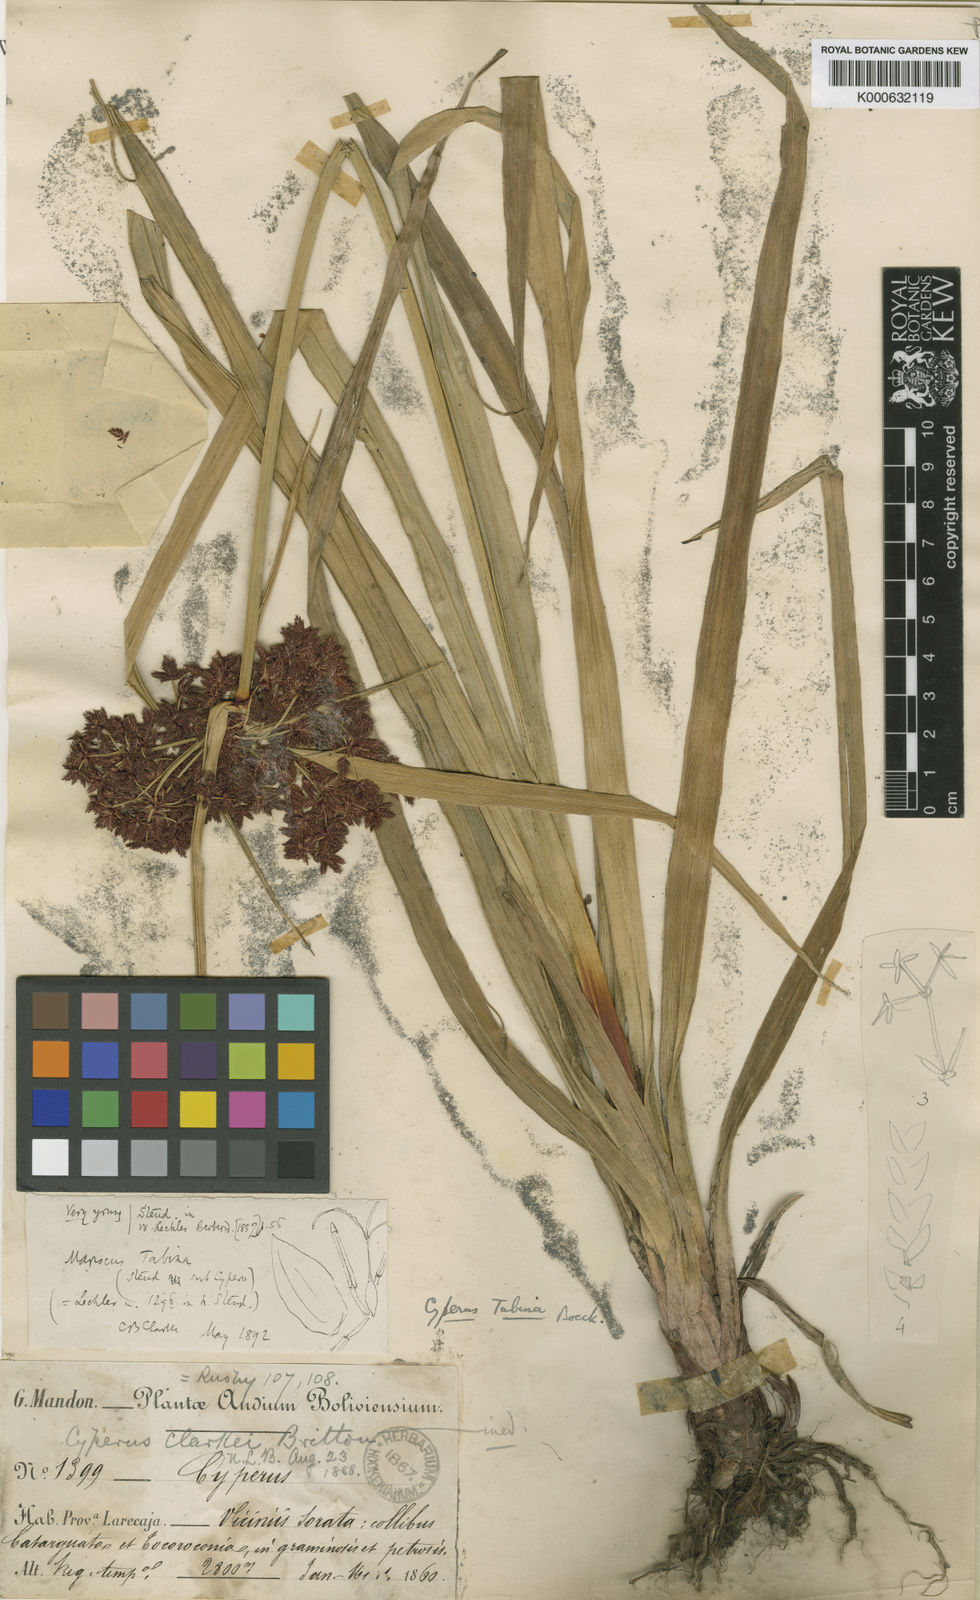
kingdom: Plantae
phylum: Tracheophyta
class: Liliopsida
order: Poales
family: Cyperaceae
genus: Cyperus
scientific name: Cyperus tabina
